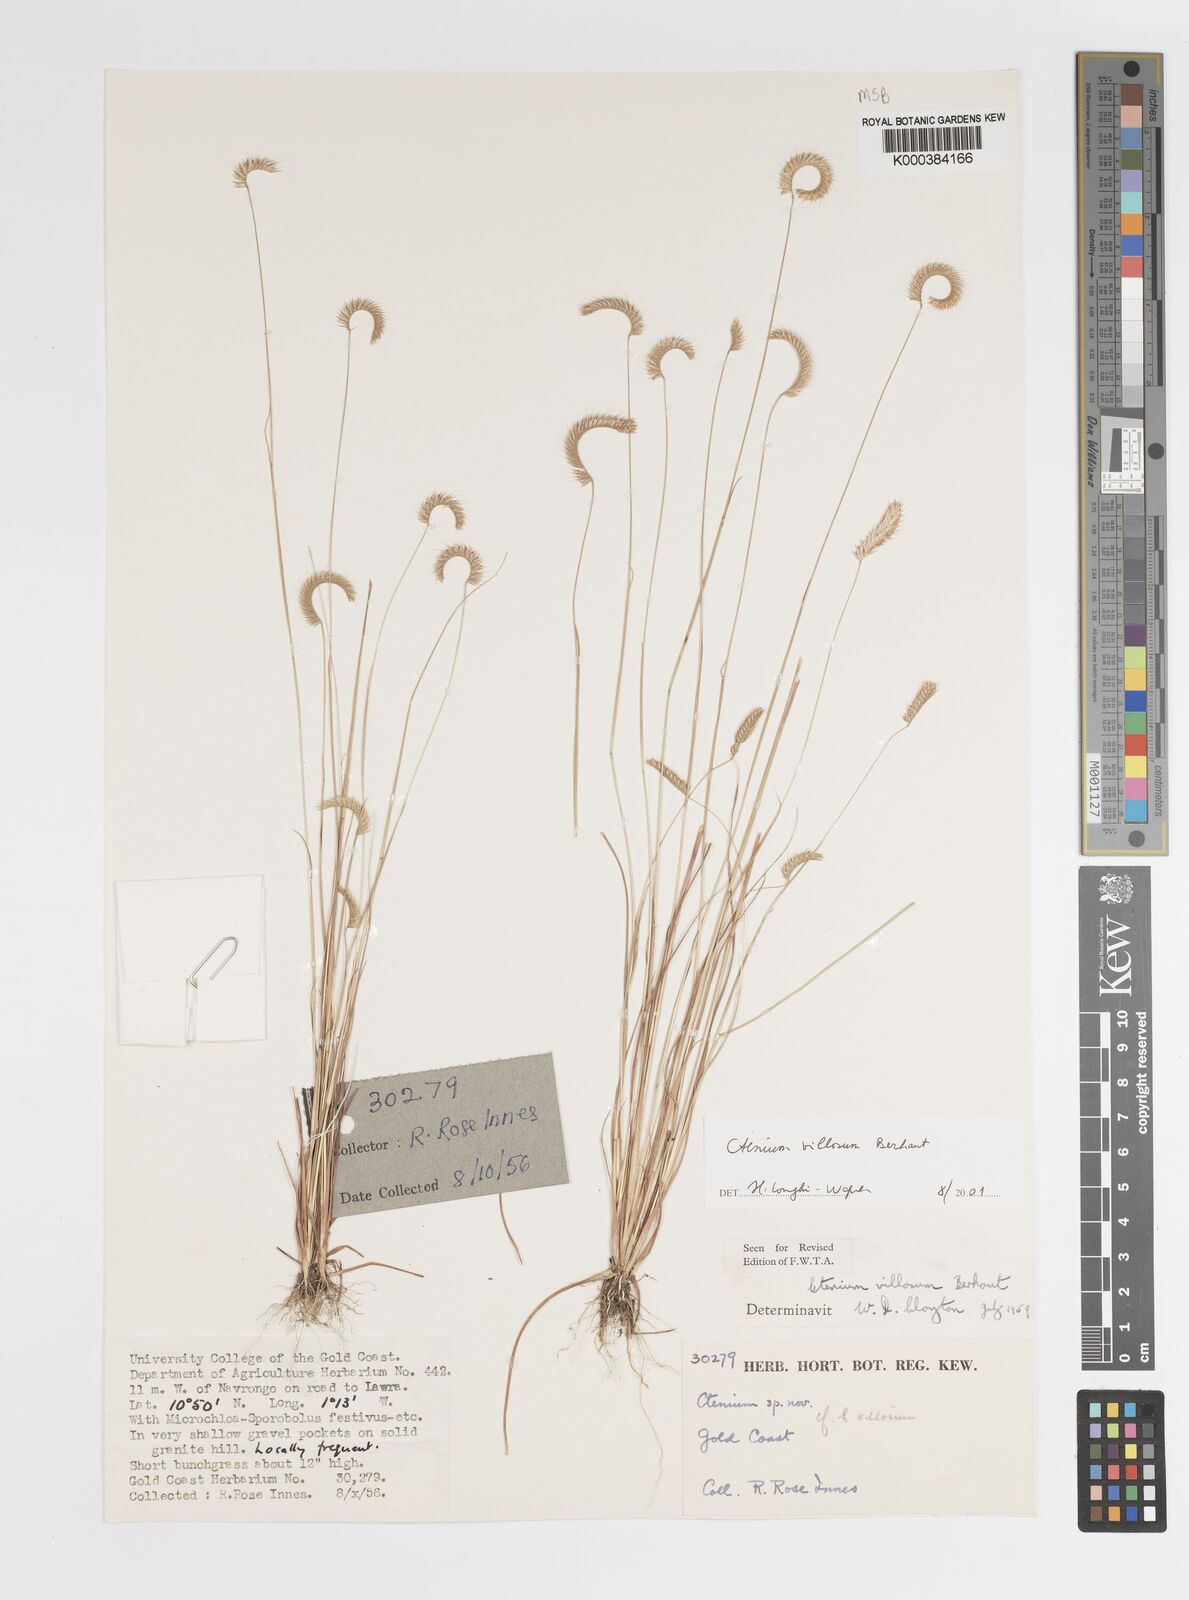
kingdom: Plantae
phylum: Tracheophyta
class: Liliopsida
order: Poales
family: Poaceae
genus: Ctenium
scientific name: Ctenium villosum
